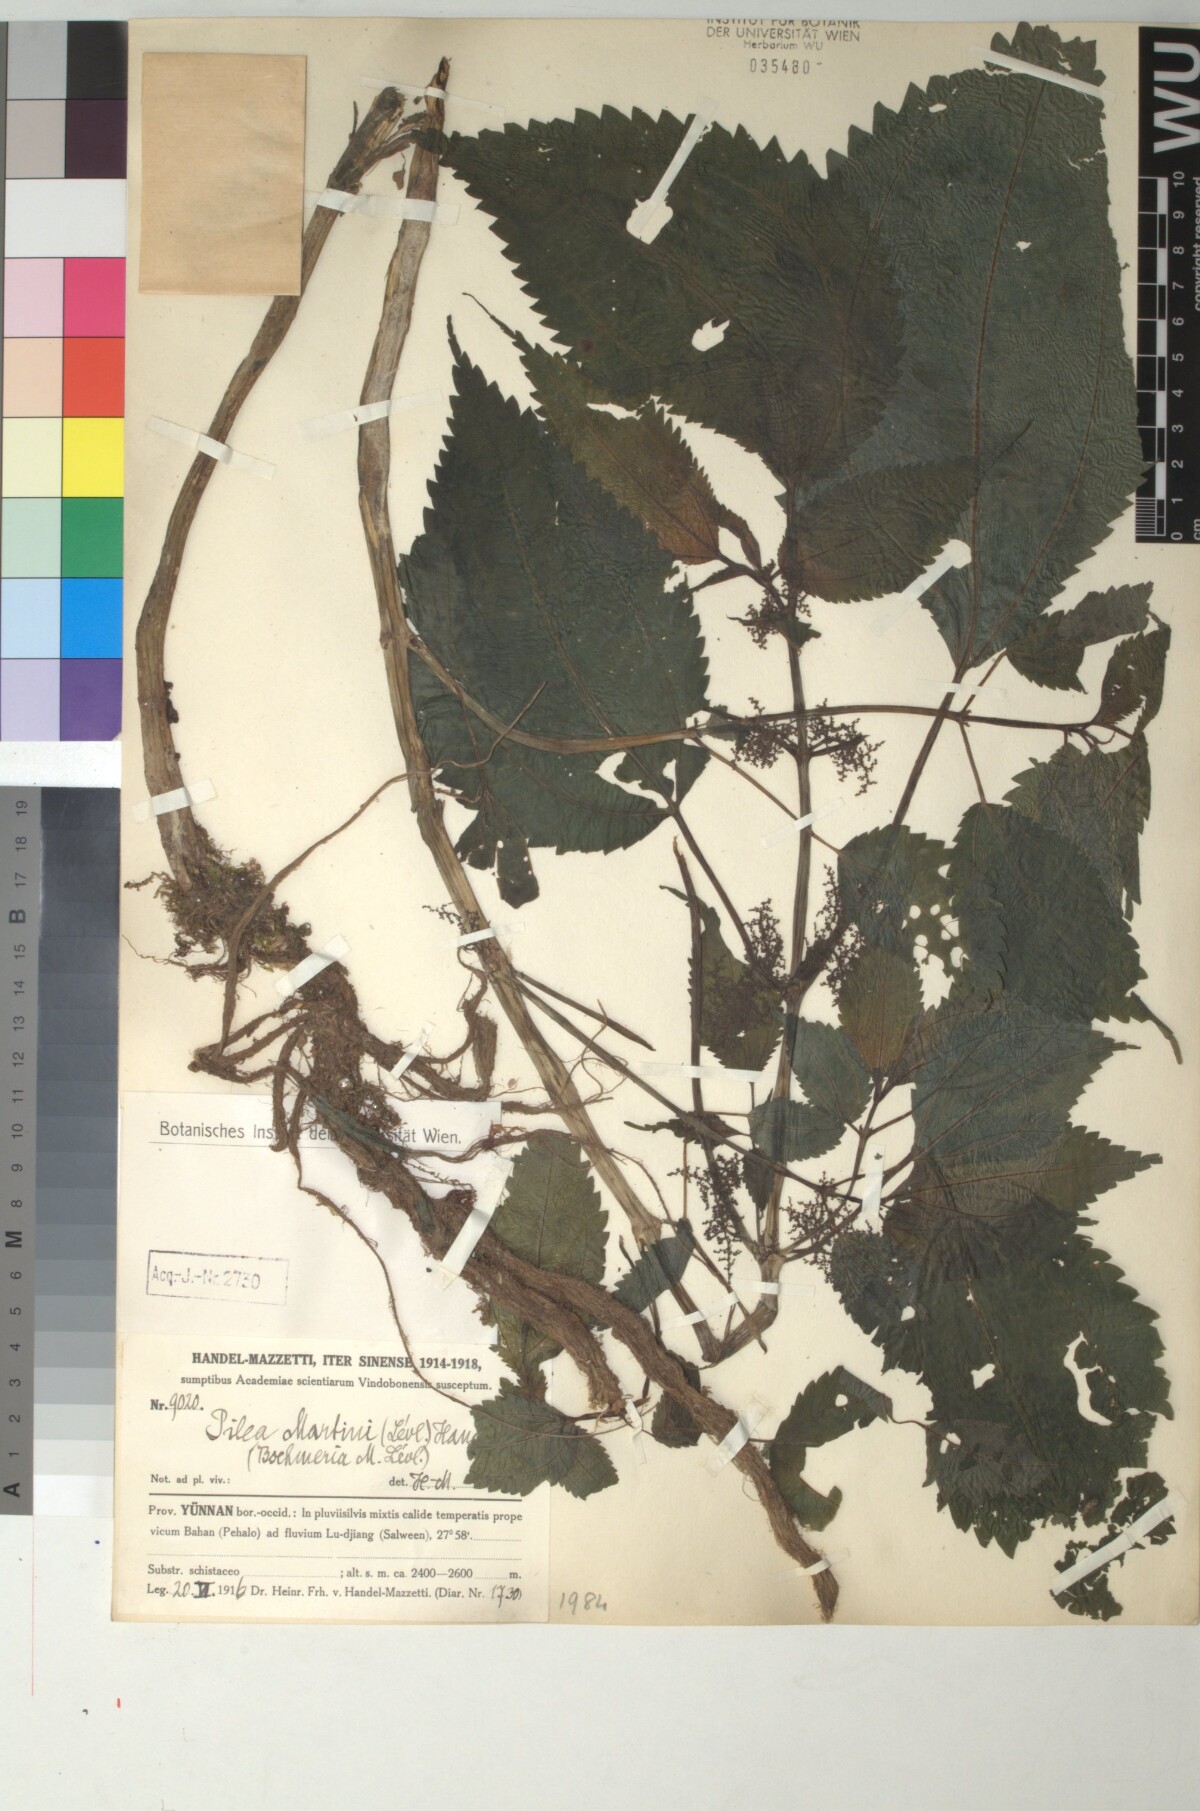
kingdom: Plantae
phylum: Tracheophyta
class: Magnoliopsida
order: Rosales
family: Urticaceae
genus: Pilea
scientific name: Pilea martini
